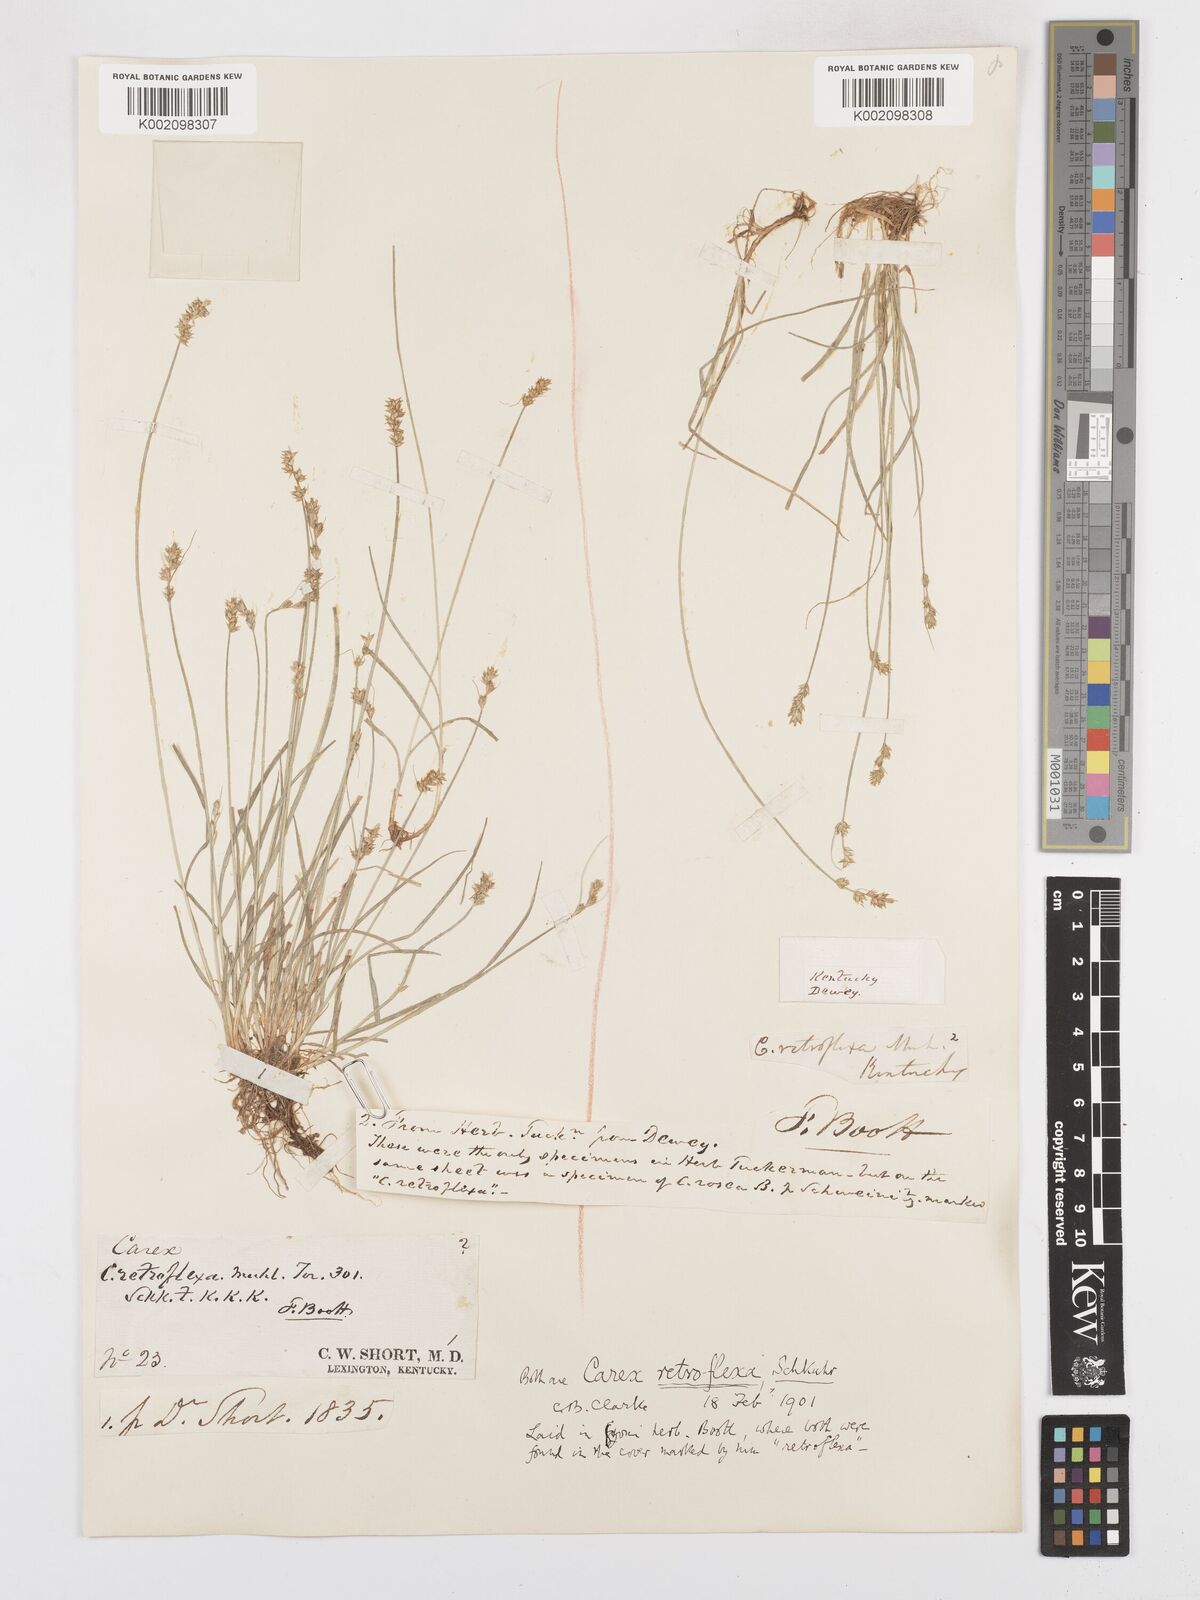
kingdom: Plantae
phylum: Tracheophyta
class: Liliopsida
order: Poales
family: Cyperaceae
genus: Carex
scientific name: Carex retroflexa
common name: Reflexed sedge
